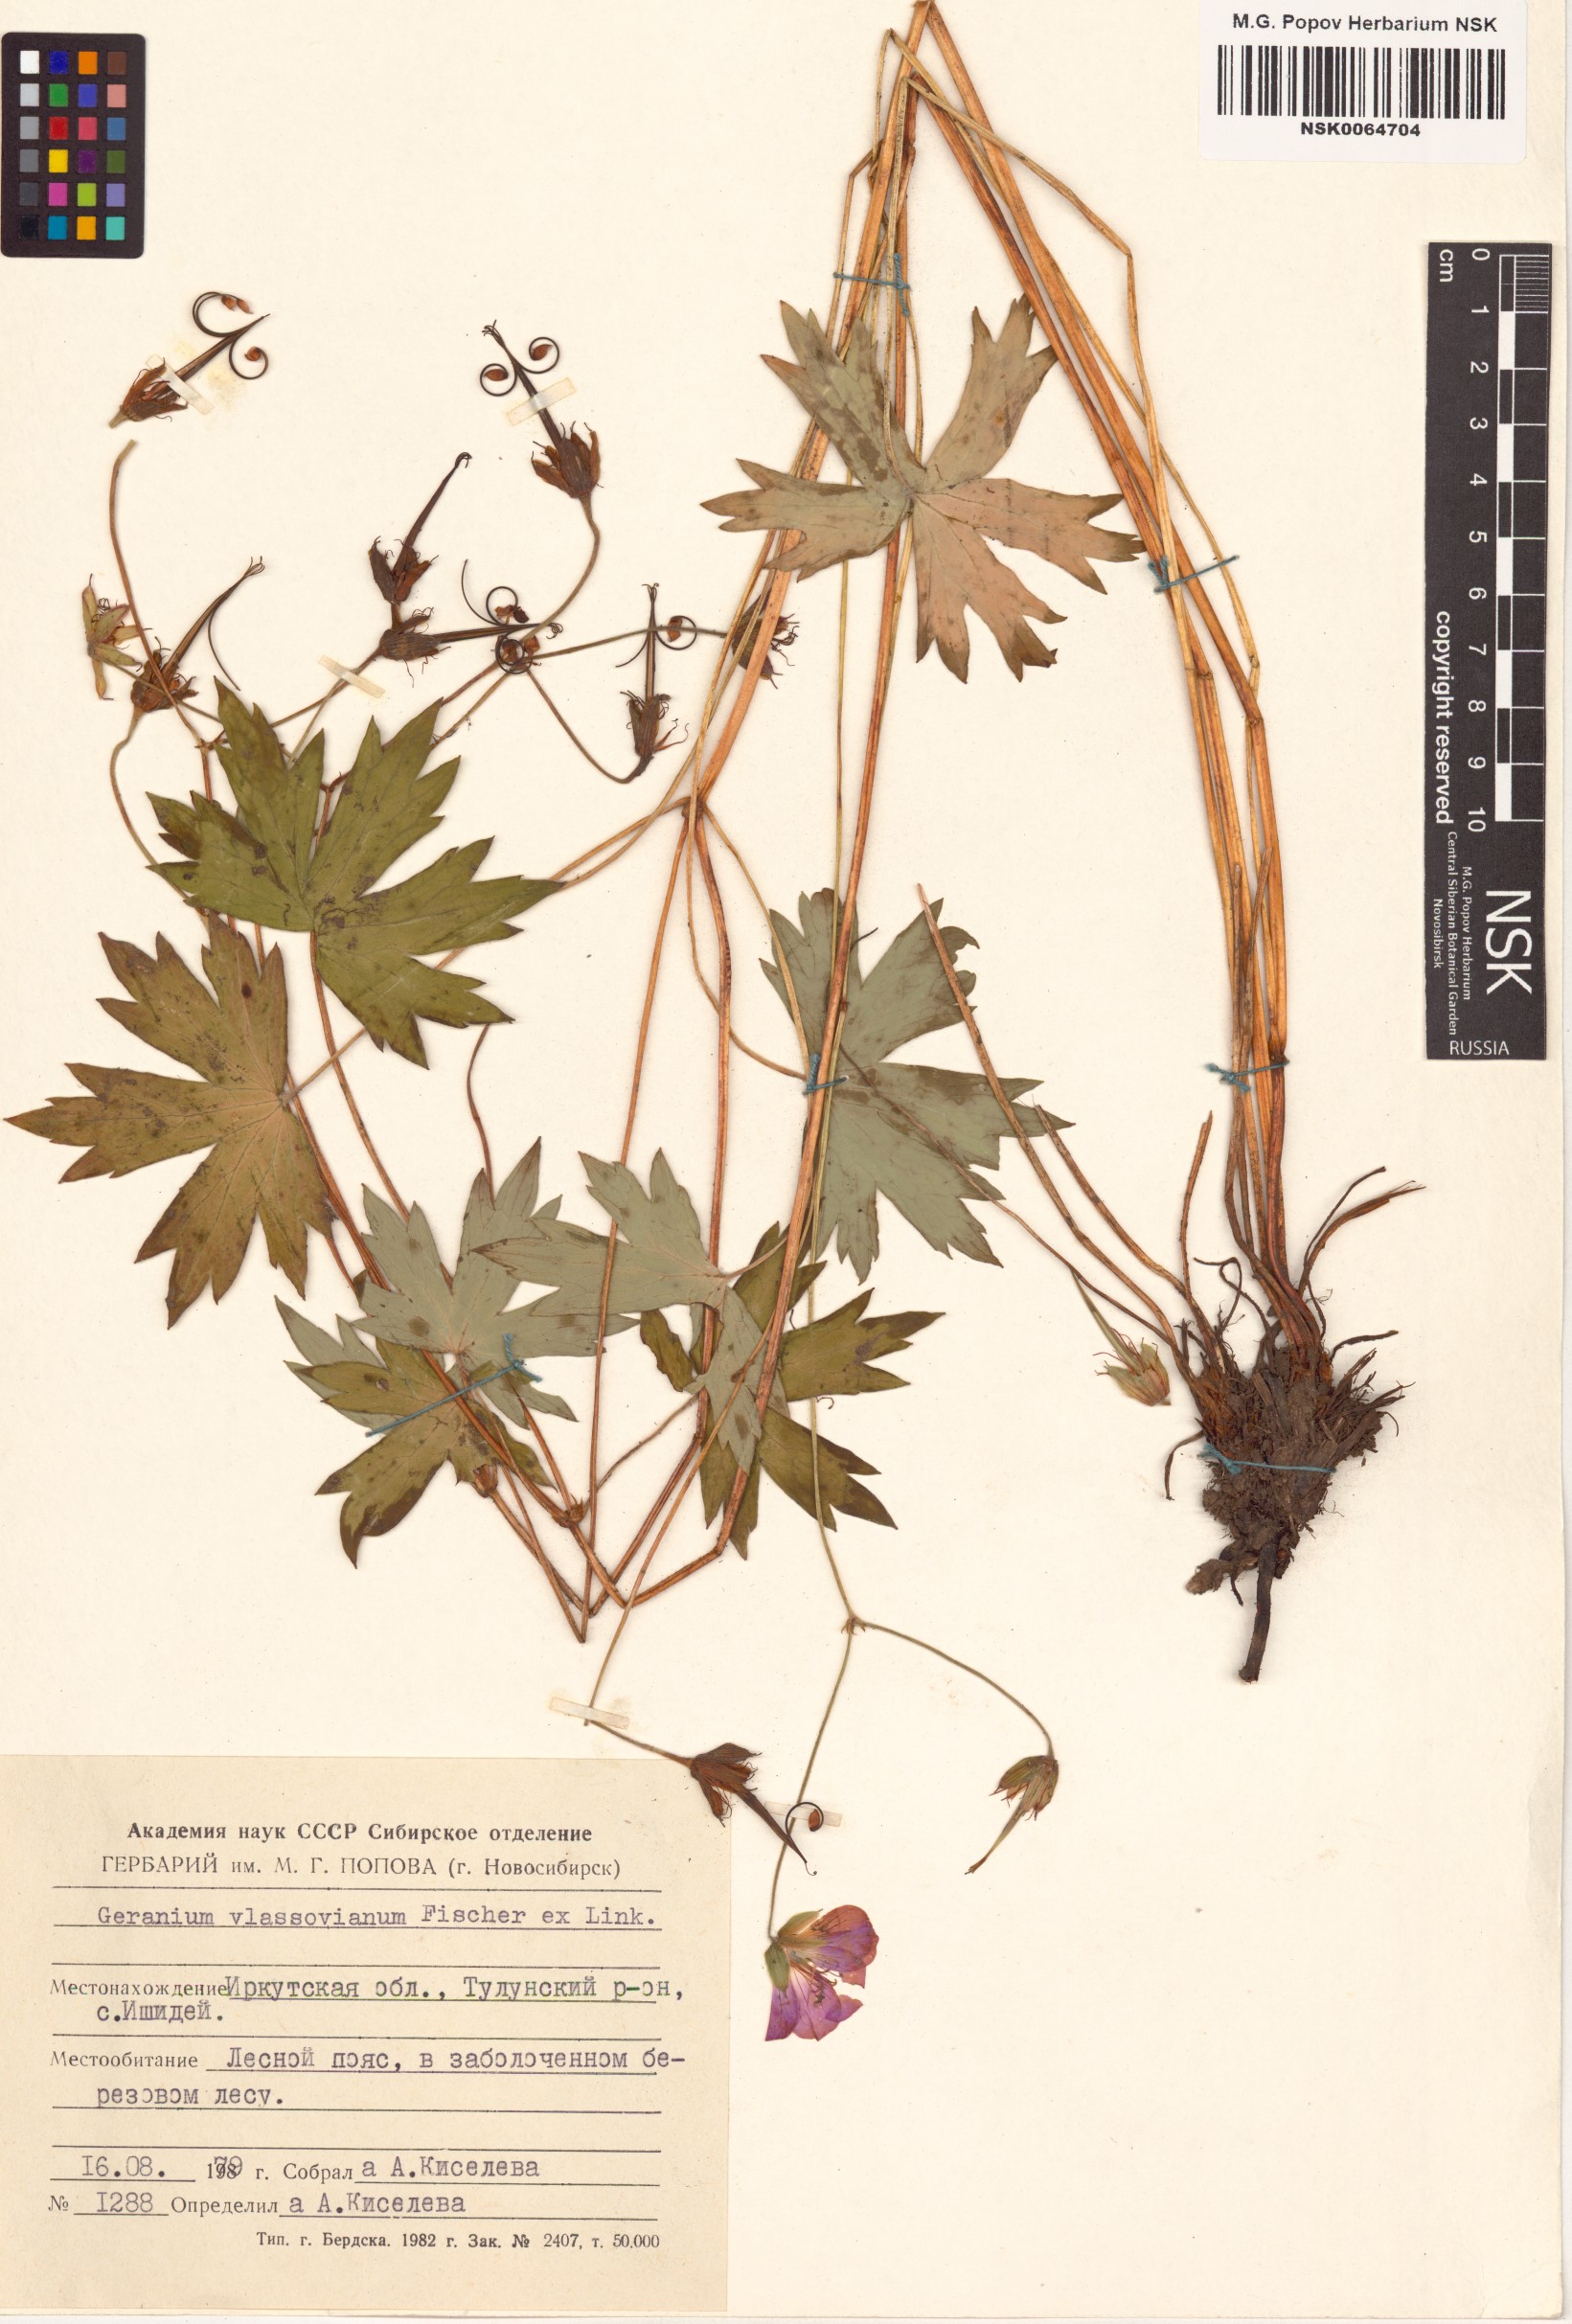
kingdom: Plantae
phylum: Tracheophyta
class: Magnoliopsida
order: Geraniales
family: Geraniaceae
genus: Geranium
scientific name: Geranium wlassovianum
